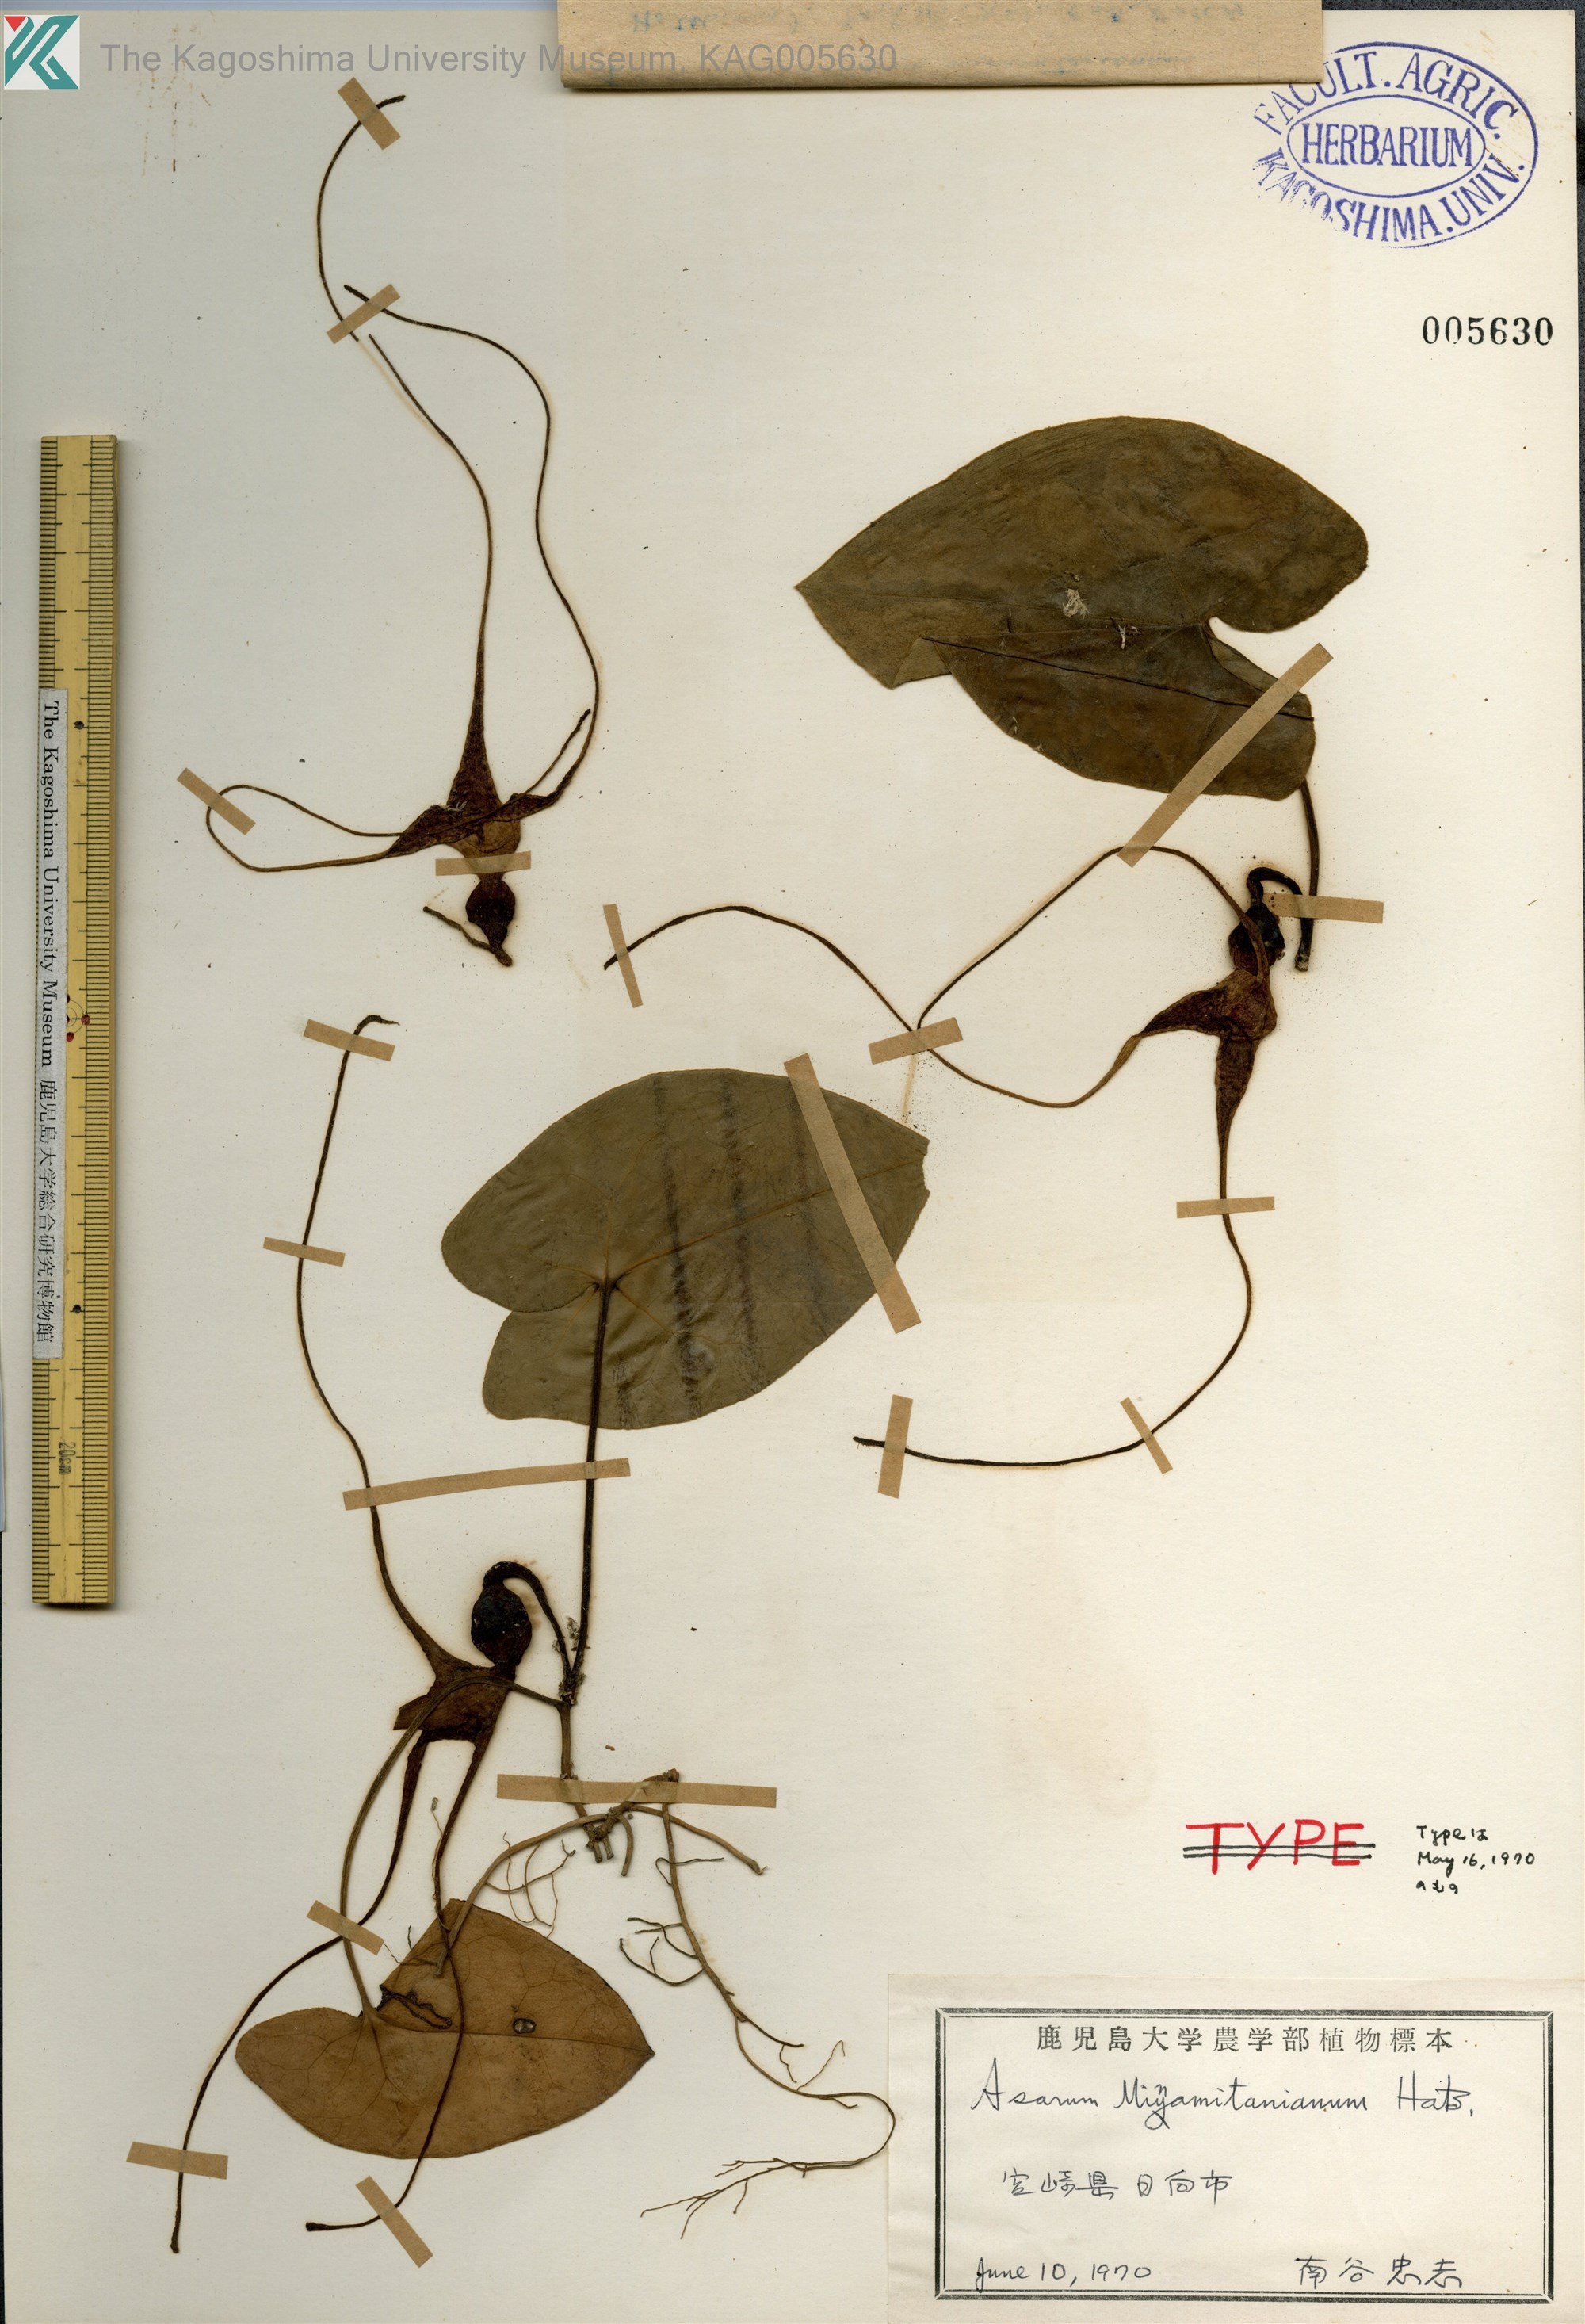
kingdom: Plantae
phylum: Tracheophyta
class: Magnoliopsida
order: Piperales
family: Aristolochiaceae
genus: Asarum
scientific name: Asarum minamitanianum
